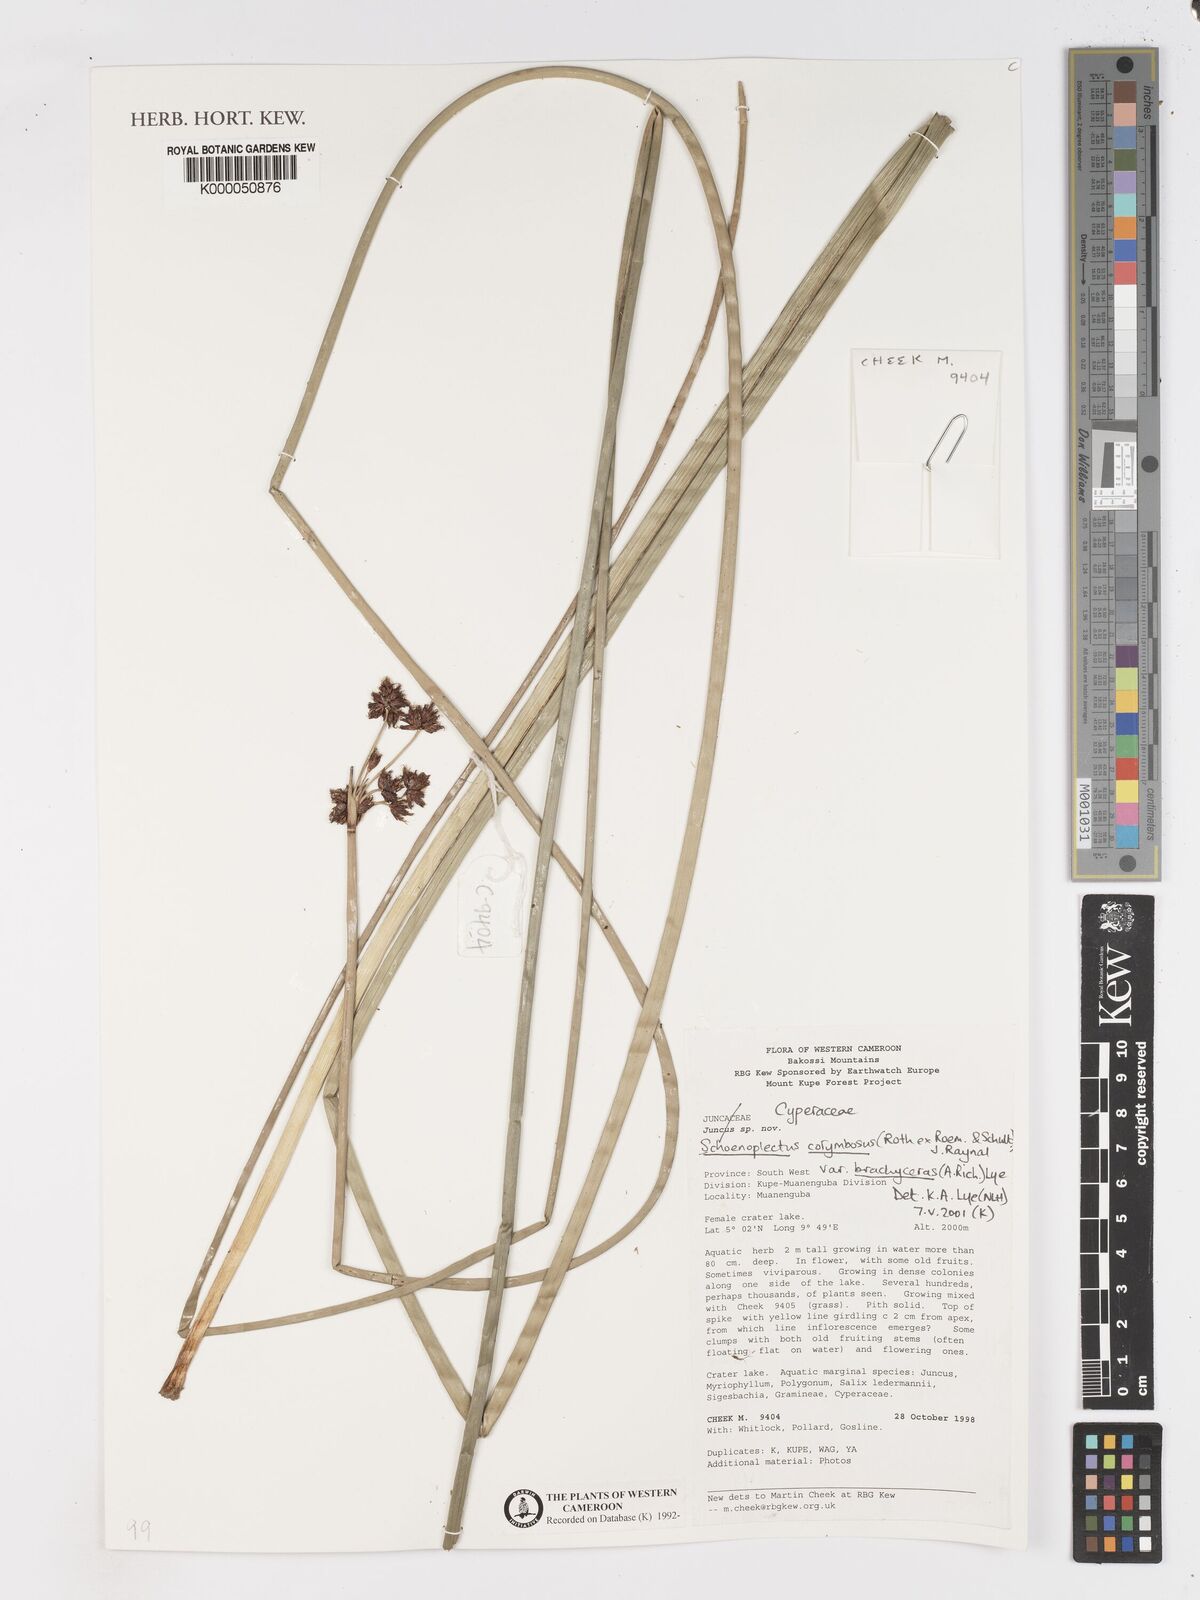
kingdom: Plantae
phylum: Tracheophyta
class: Liliopsida
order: Poales
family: Cyperaceae
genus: Schoenoplectiella
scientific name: Schoenoplectiella brachyceras
